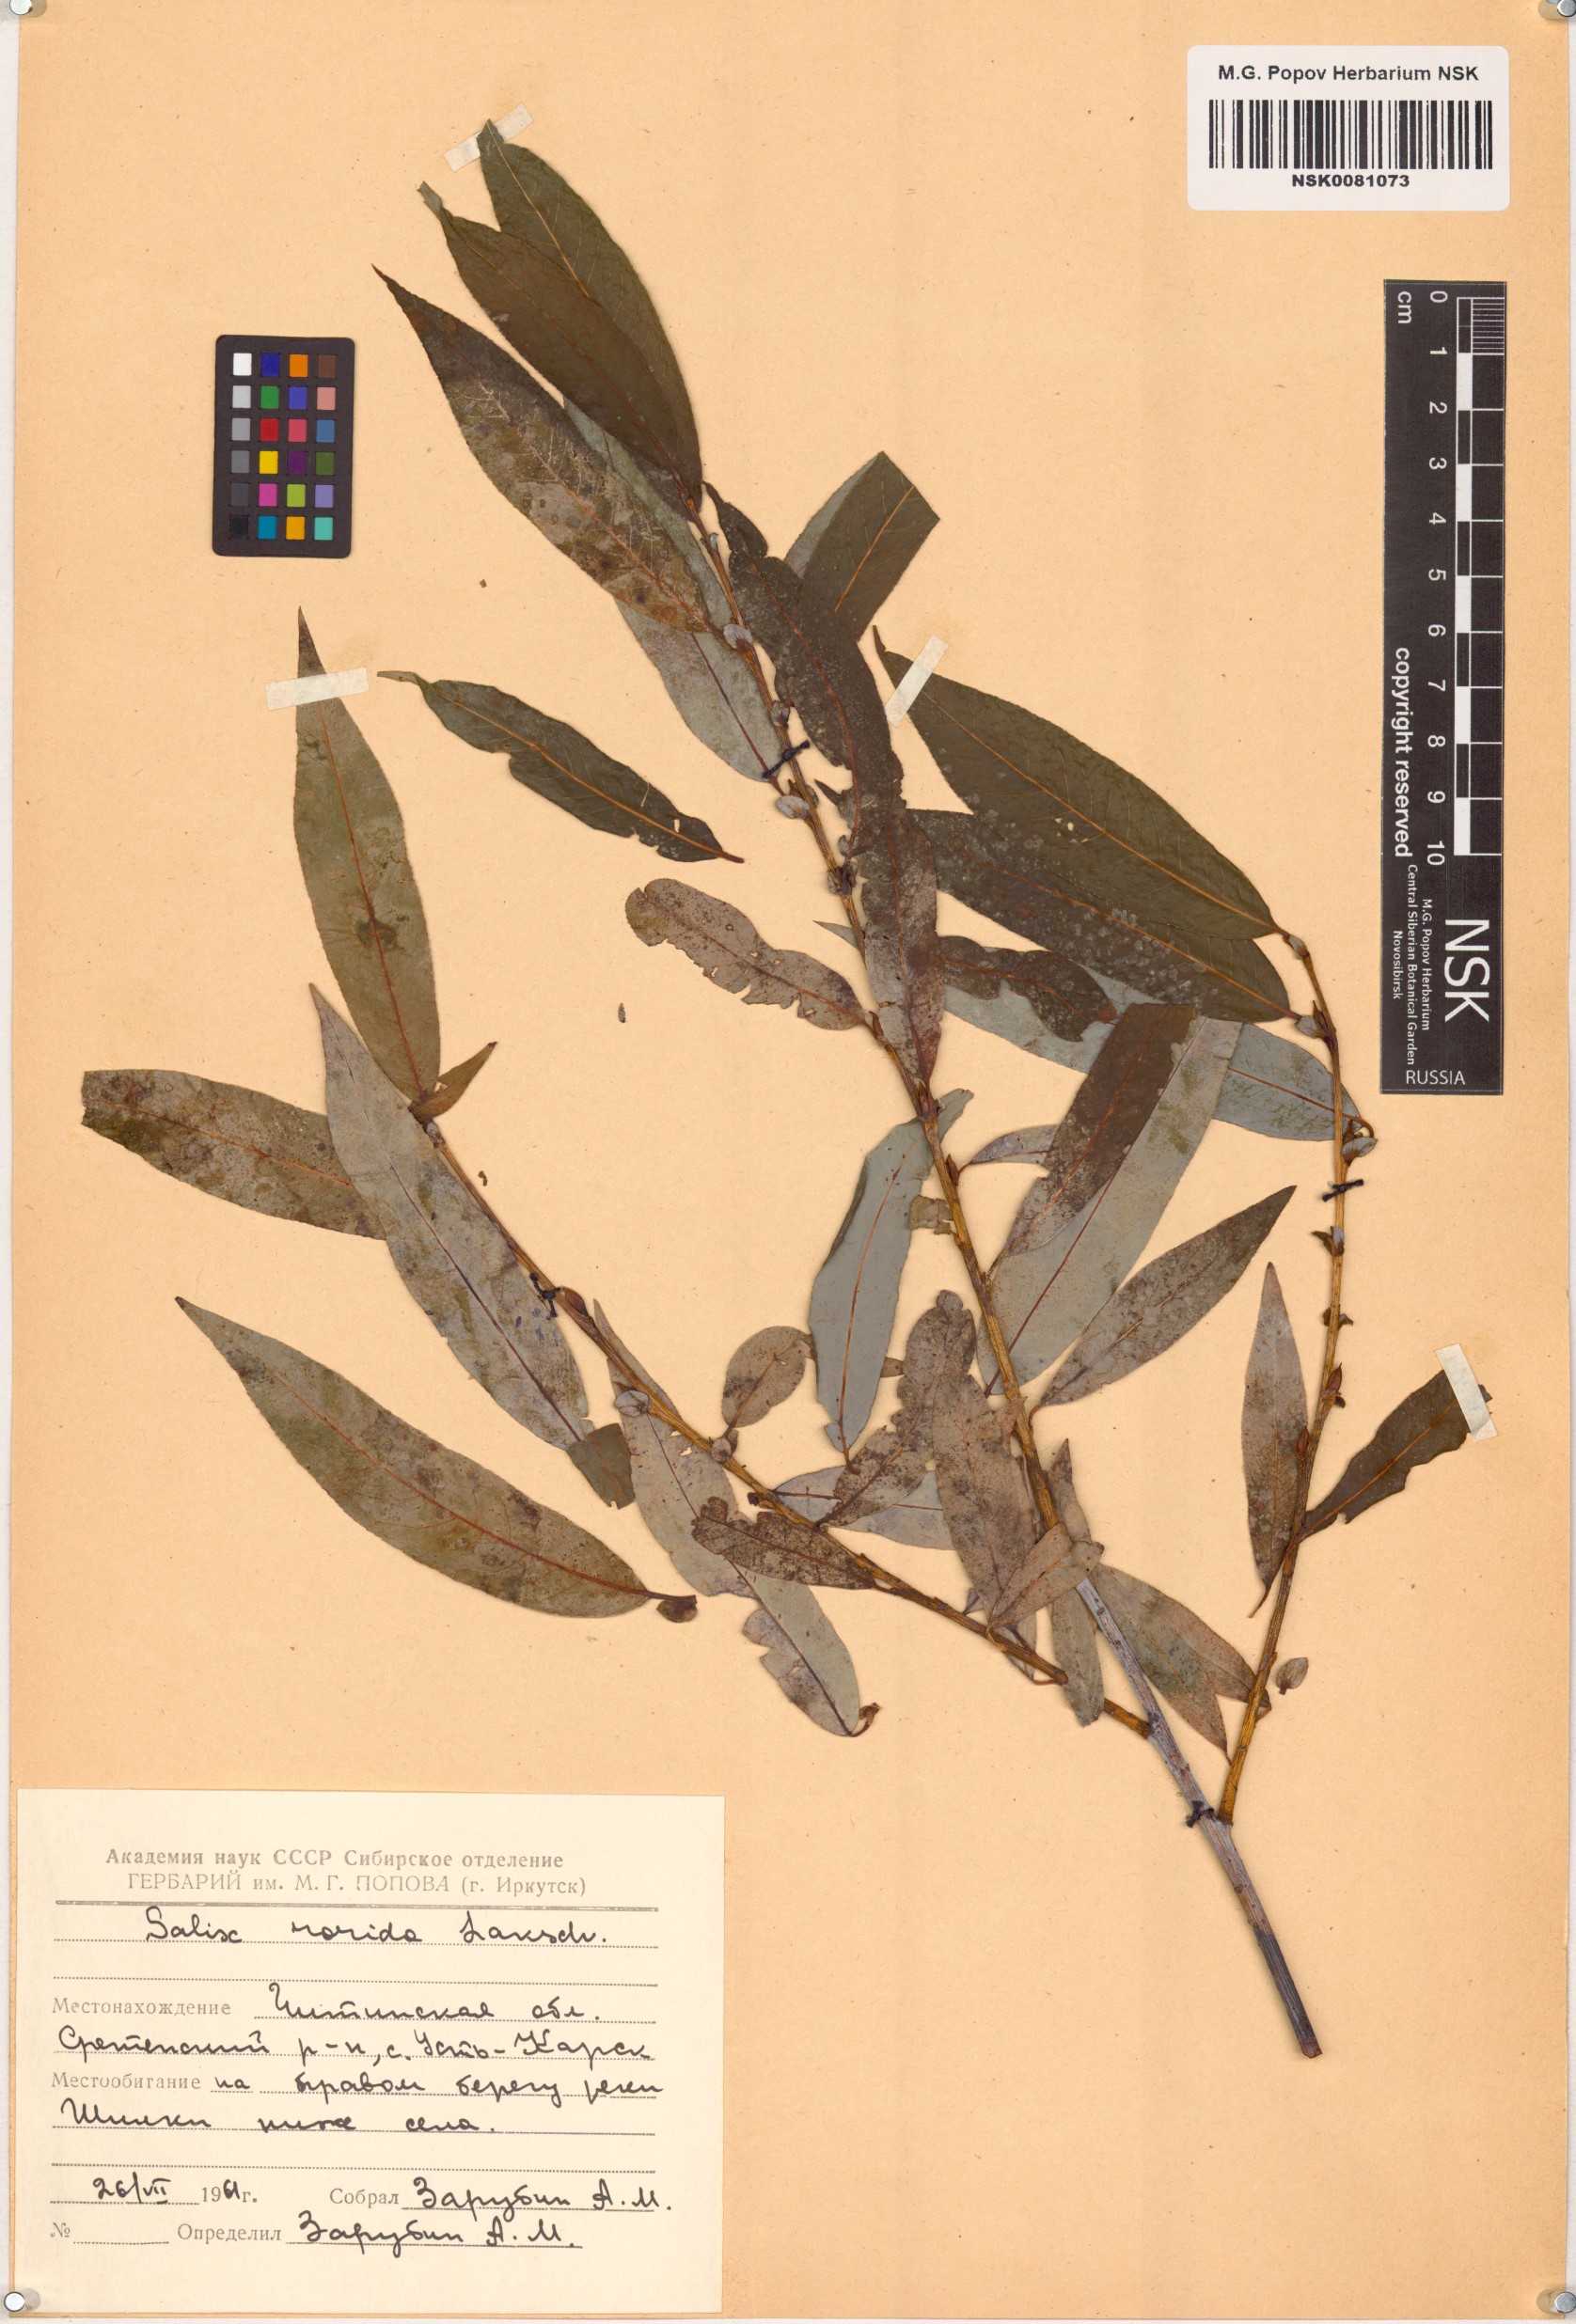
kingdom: Plantae
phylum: Tracheophyta
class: Magnoliopsida
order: Malpighiales
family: Salicaceae
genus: Salix
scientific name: Salix rorida
